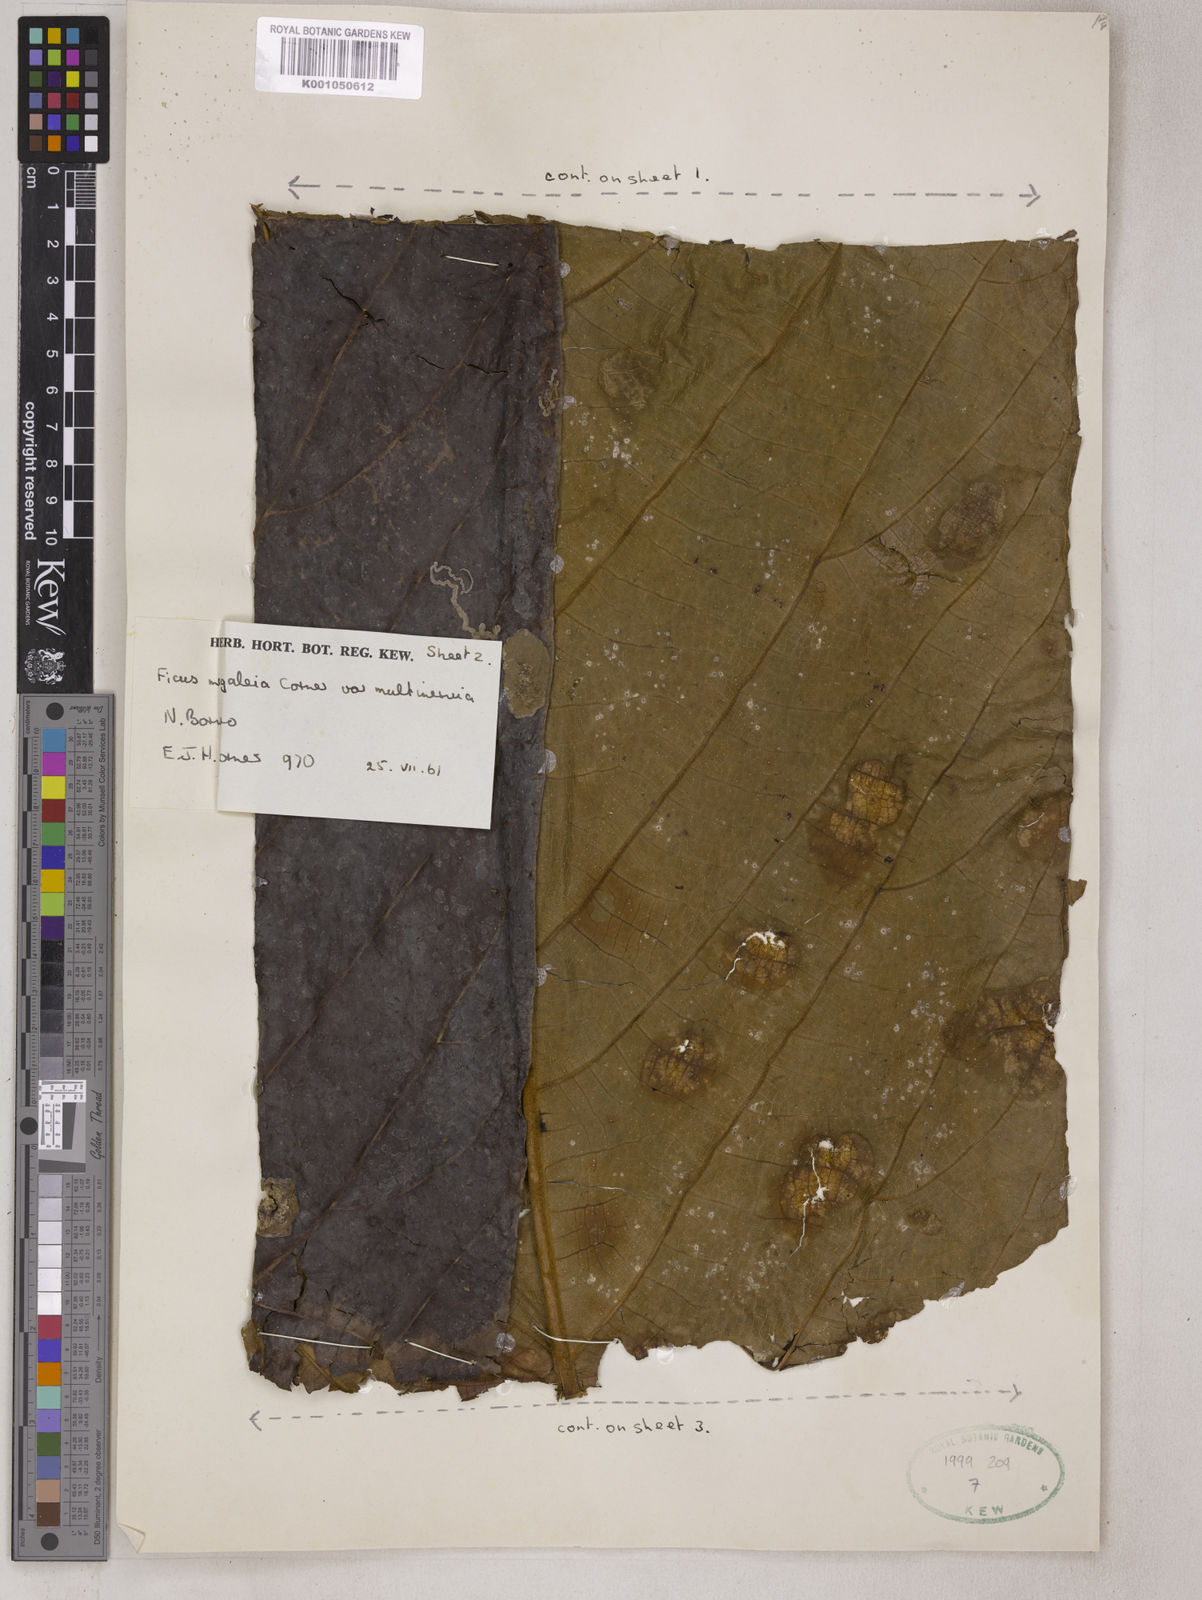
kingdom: Plantae
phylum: Tracheophyta
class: Magnoliopsida
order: Rosales
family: Moraceae
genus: Ficus
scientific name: Ficus megaleia
